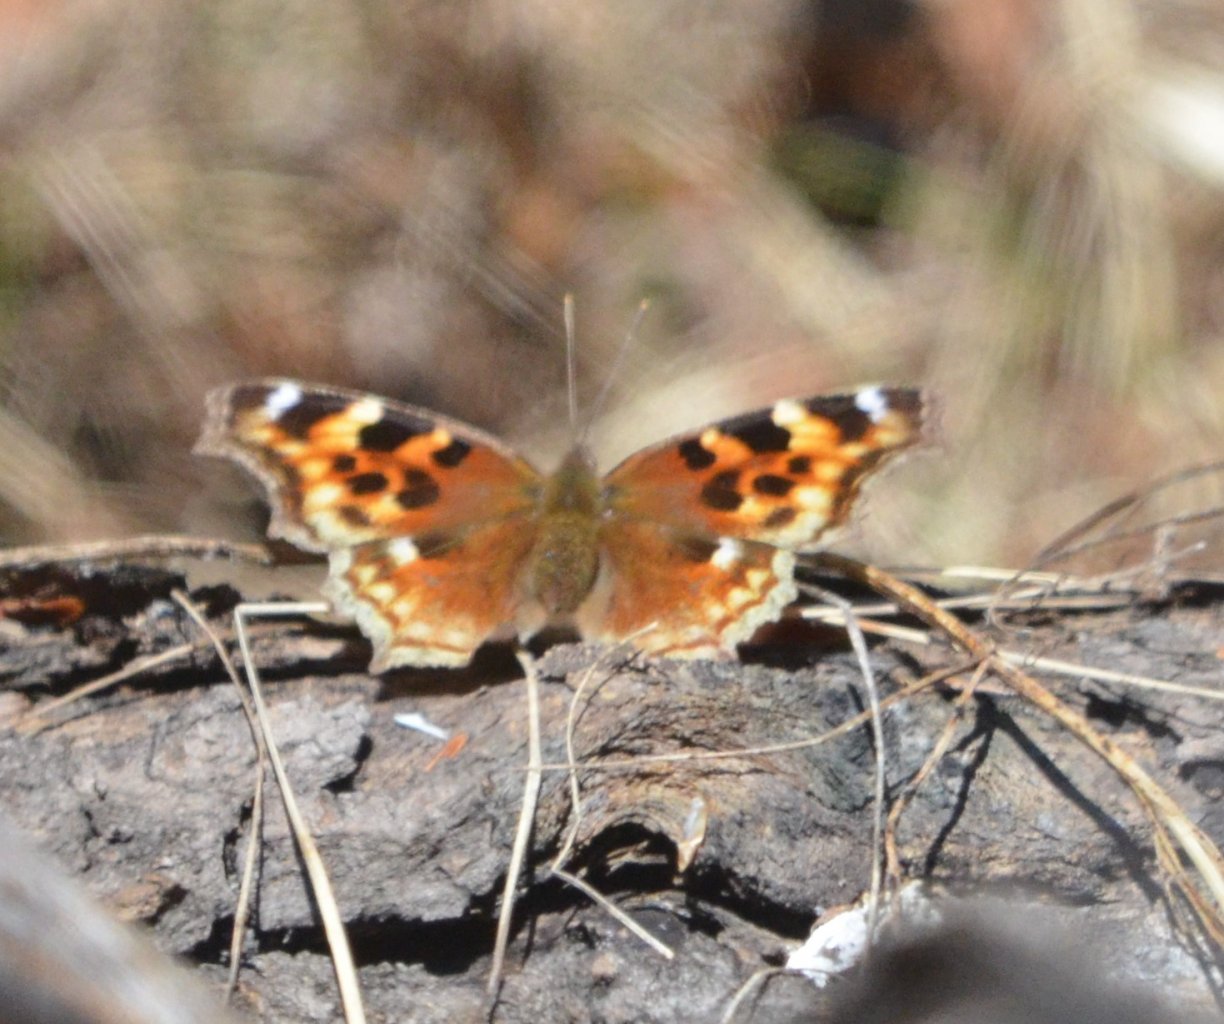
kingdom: Animalia
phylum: Arthropoda
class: Insecta
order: Lepidoptera
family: Nymphalidae
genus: Polygonia
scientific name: Polygonia vaualbum
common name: Compton Tortoiseshell
